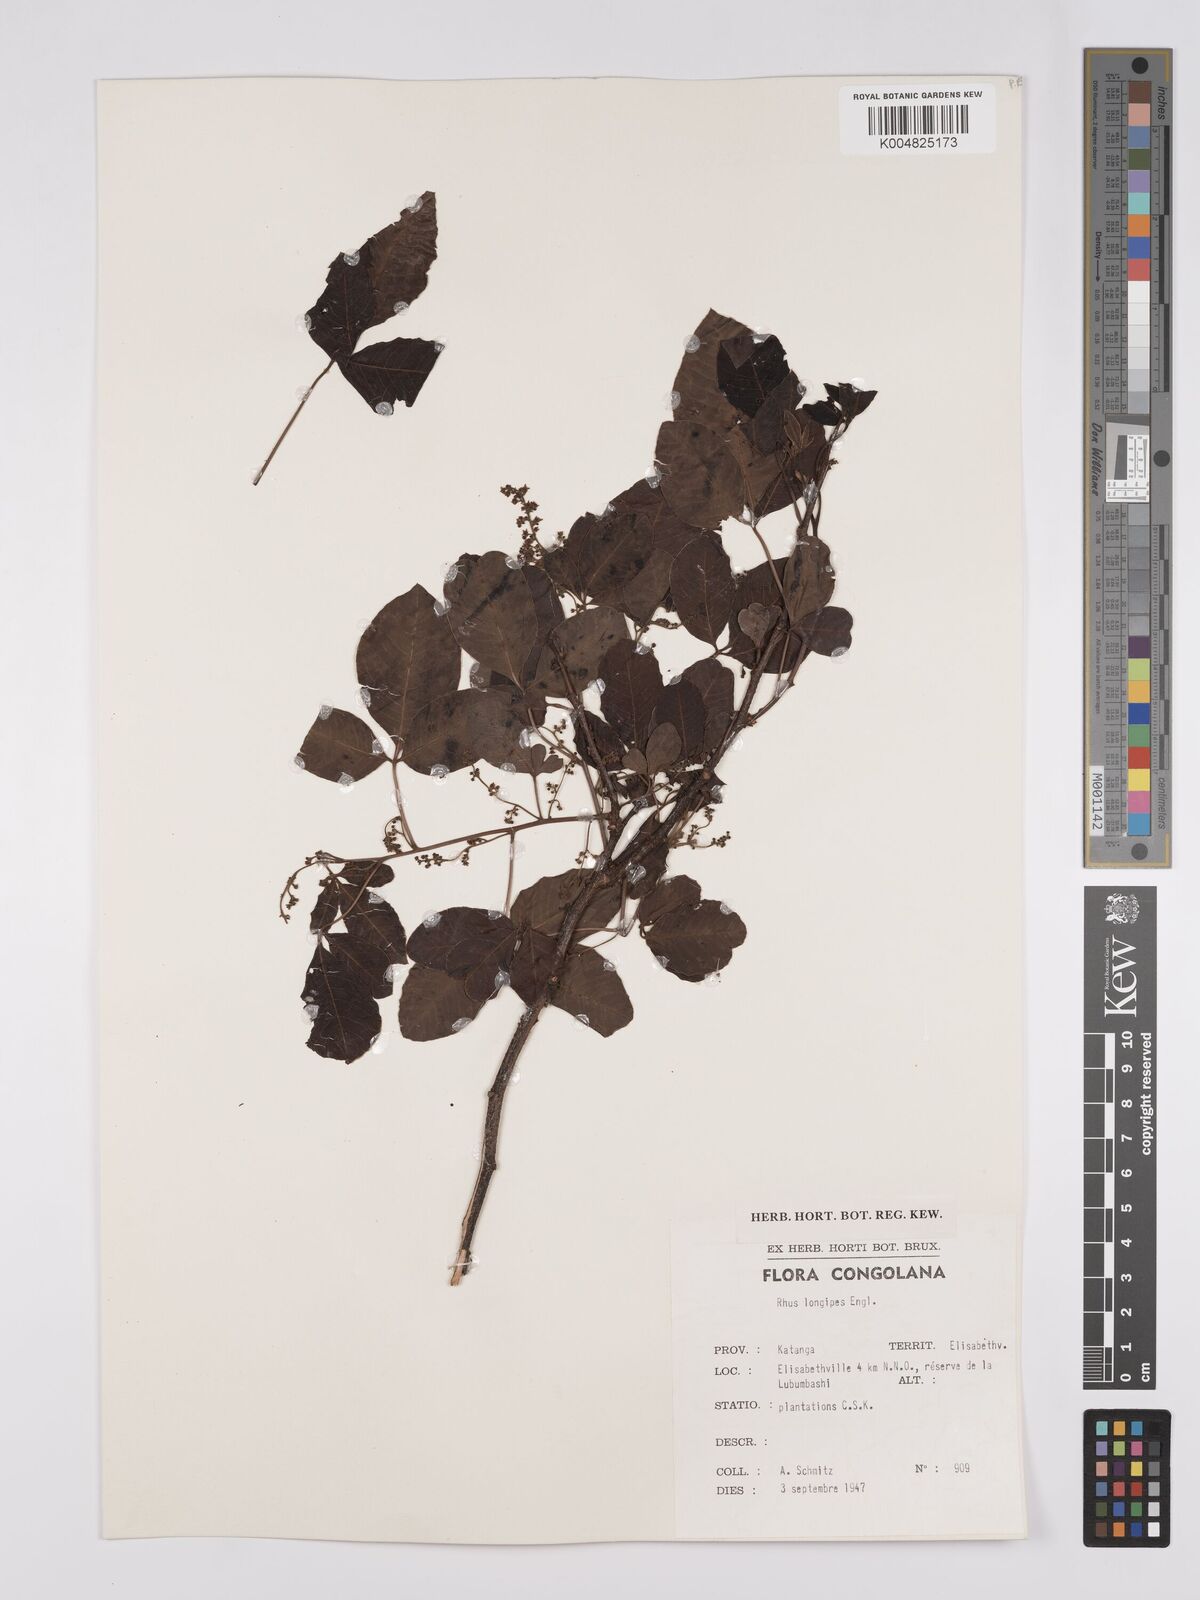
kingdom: Plantae
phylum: Tracheophyta
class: Magnoliopsida
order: Sapindales
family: Anacardiaceae
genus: Searsia
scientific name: Searsia longipes
